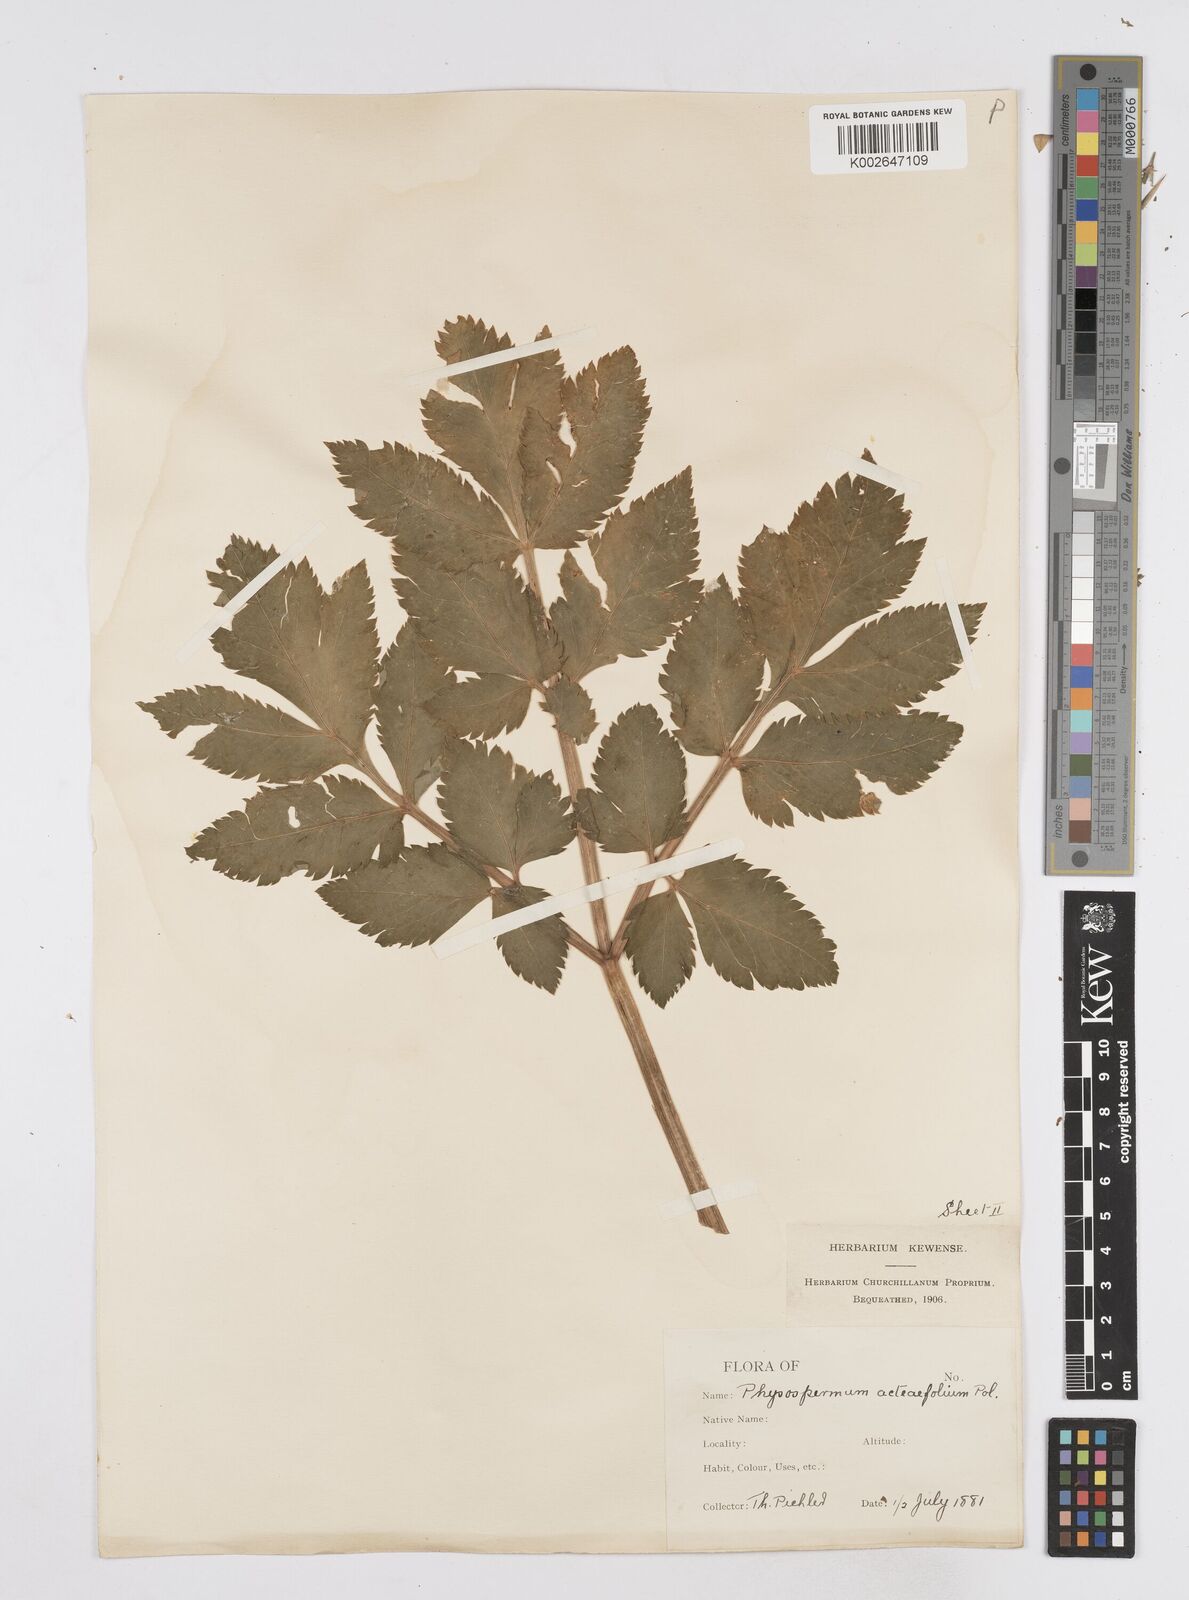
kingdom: Plantae
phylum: Tracheophyta
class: Magnoliopsida
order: Apiales
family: Apiaceae
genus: Physospermum
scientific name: Physospermum verticillatum
